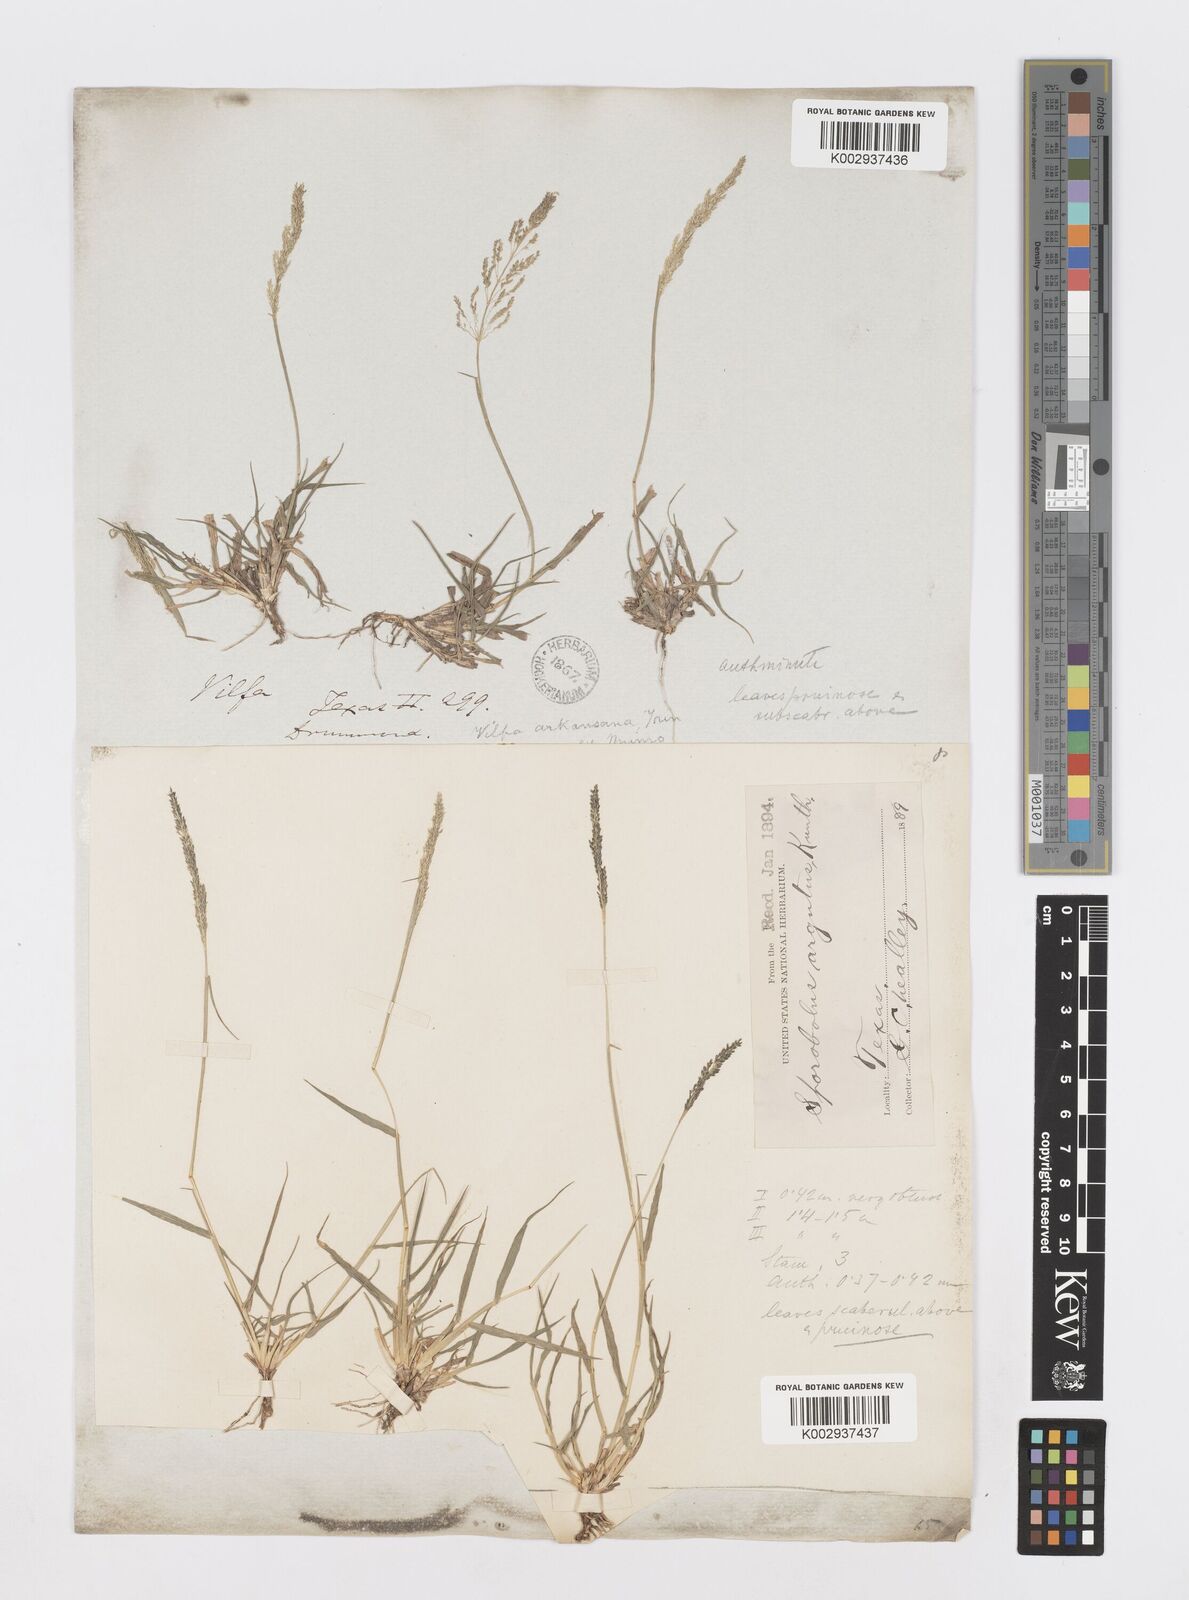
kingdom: Plantae
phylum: Tracheophyta
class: Liliopsida
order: Poales
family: Poaceae
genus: Sporobolus
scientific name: Sporobolus nealleyi
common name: Gyp grass
